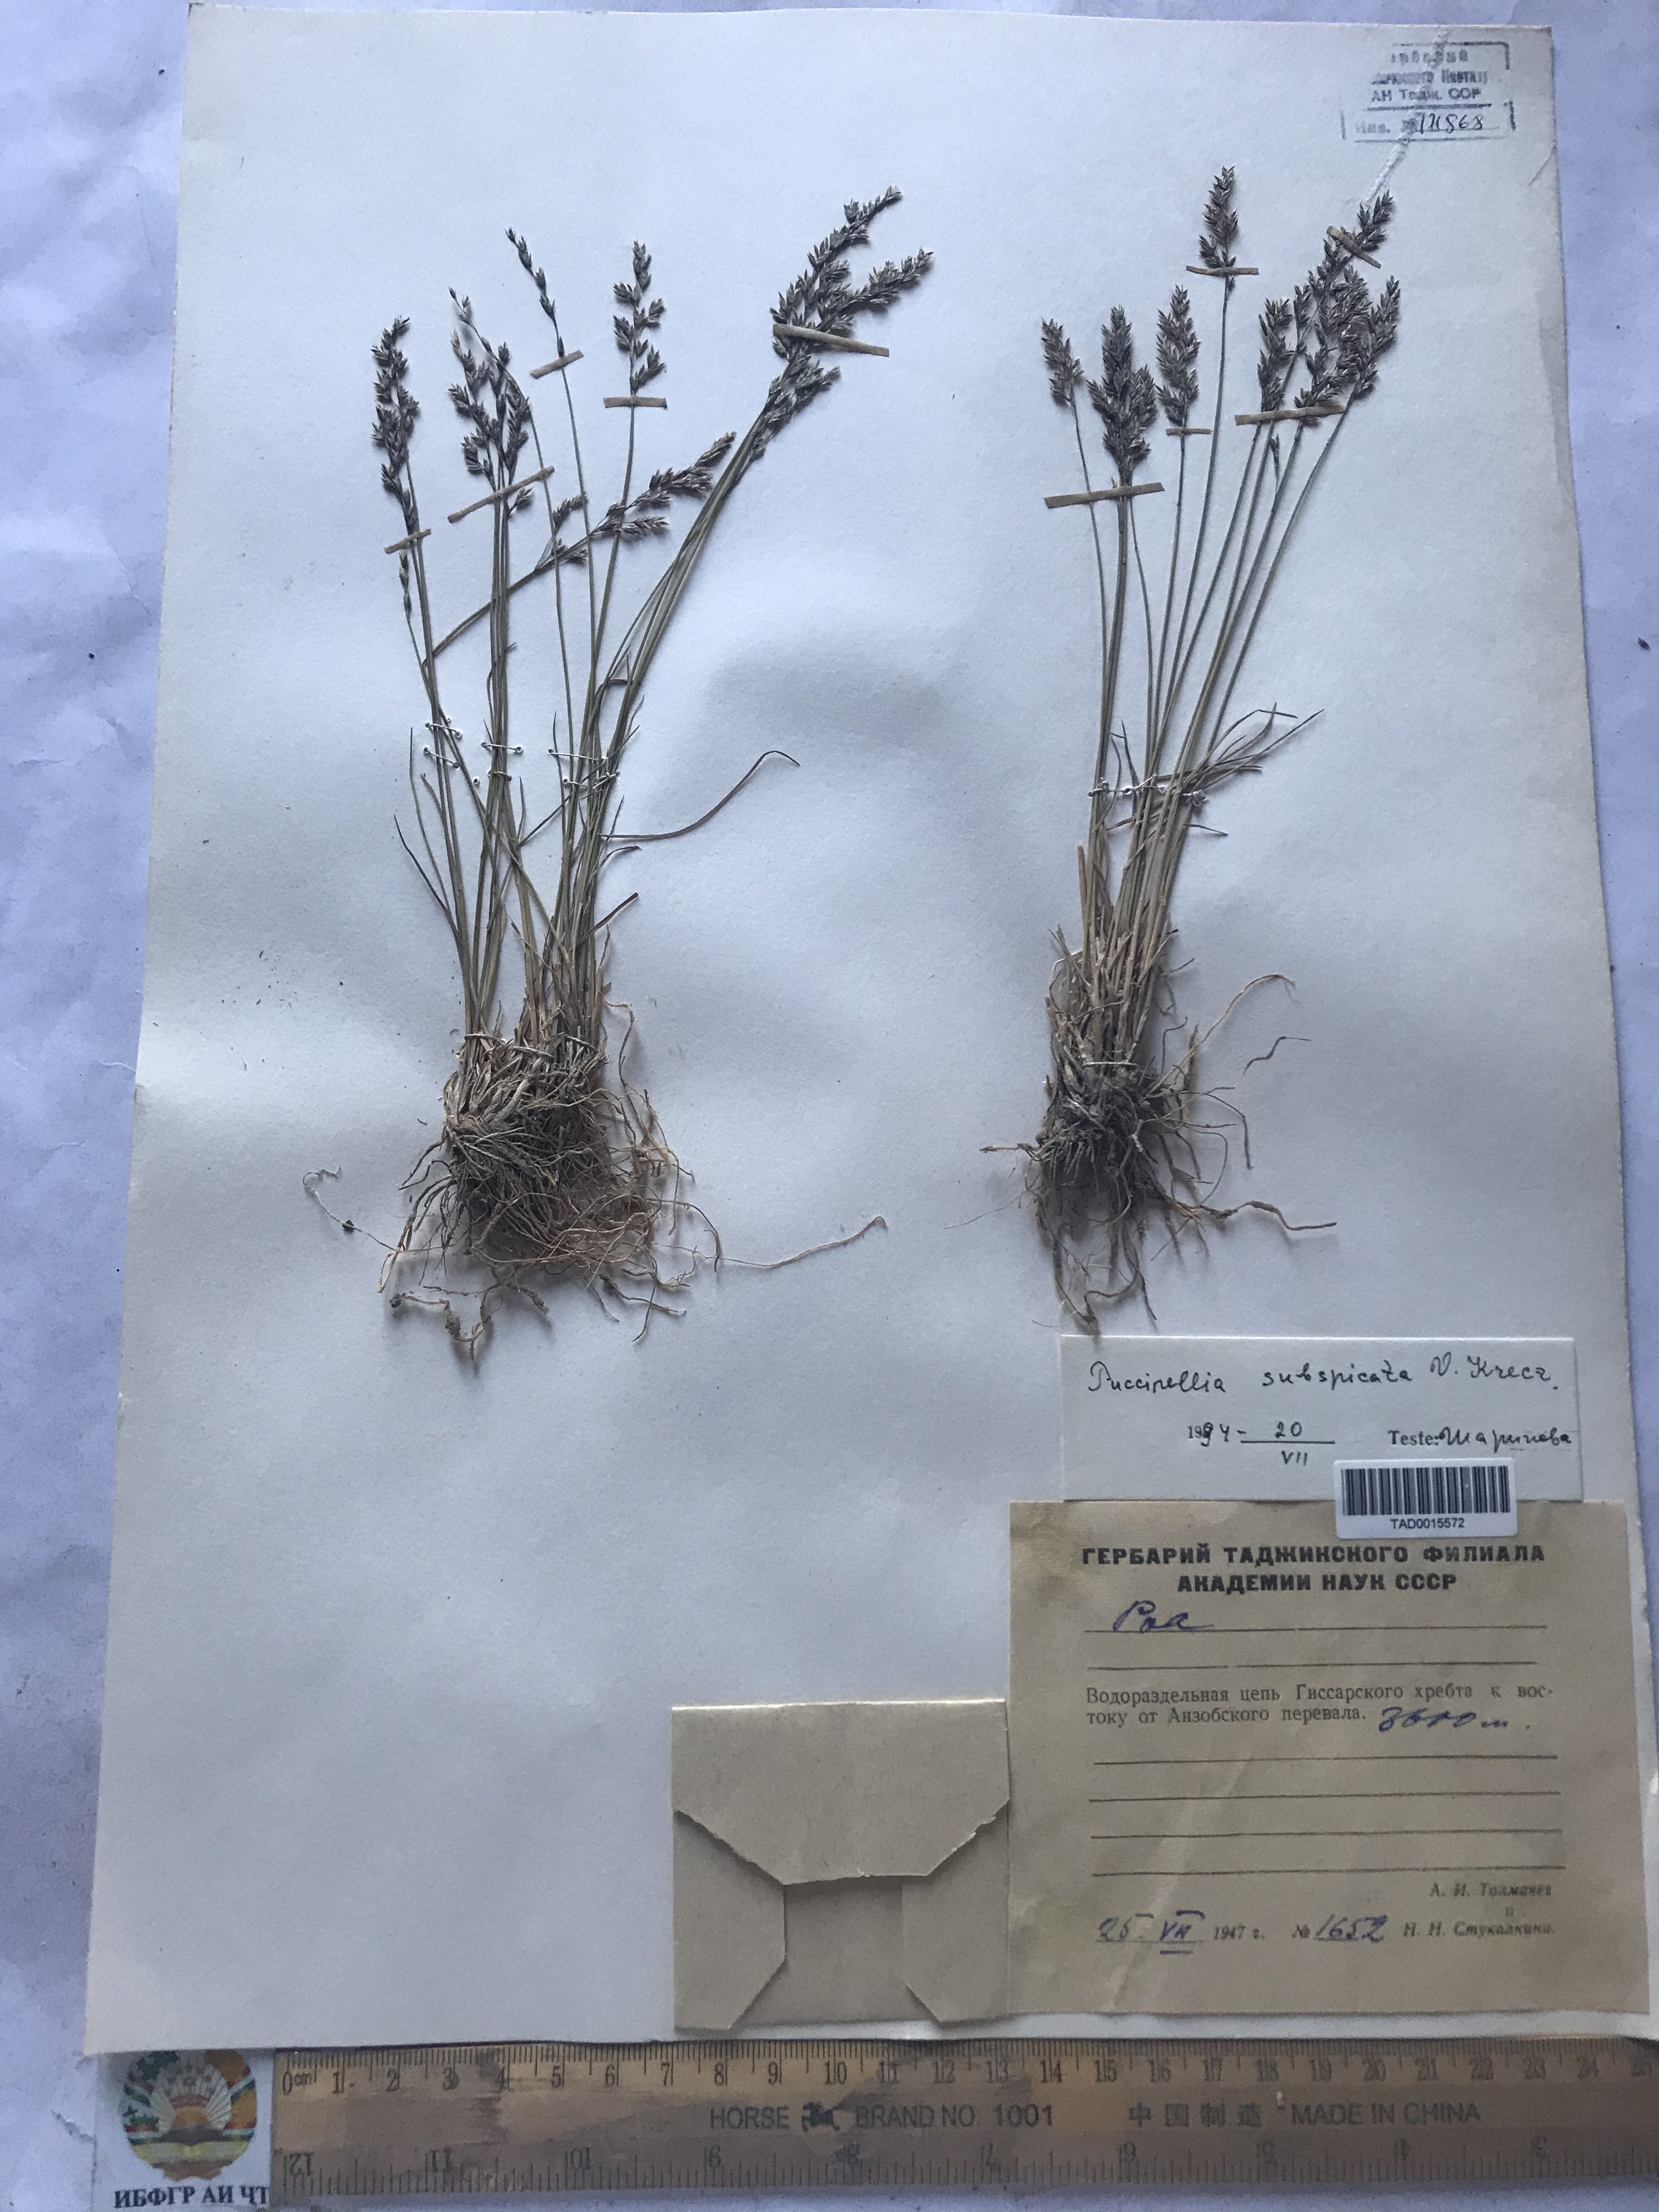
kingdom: Plantae
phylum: Tracheophyta
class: Liliopsida
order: Poales
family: Poaceae
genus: Puccinellia
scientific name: Puccinellia subspicata
